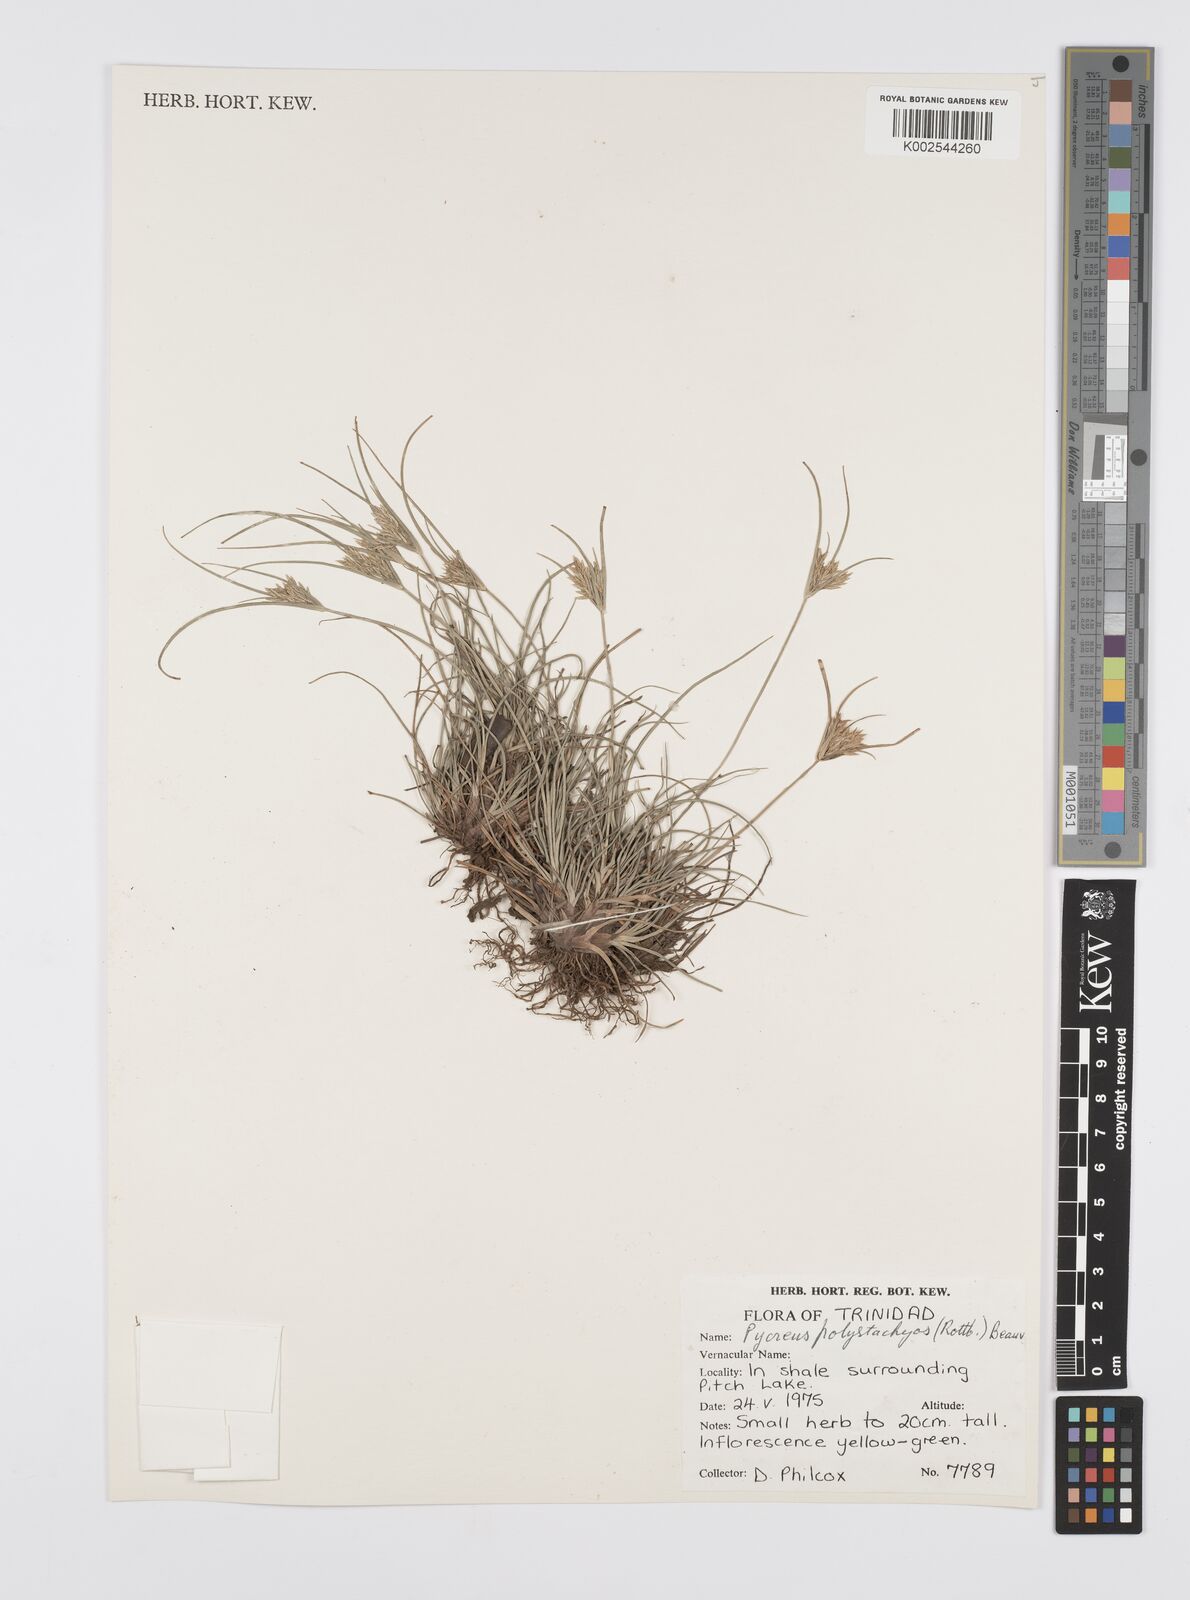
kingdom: Plantae
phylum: Tracheophyta
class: Liliopsida
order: Poales
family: Cyperaceae
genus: Cyperus
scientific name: Cyperus polystachyos
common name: Bunchy flat sedge
